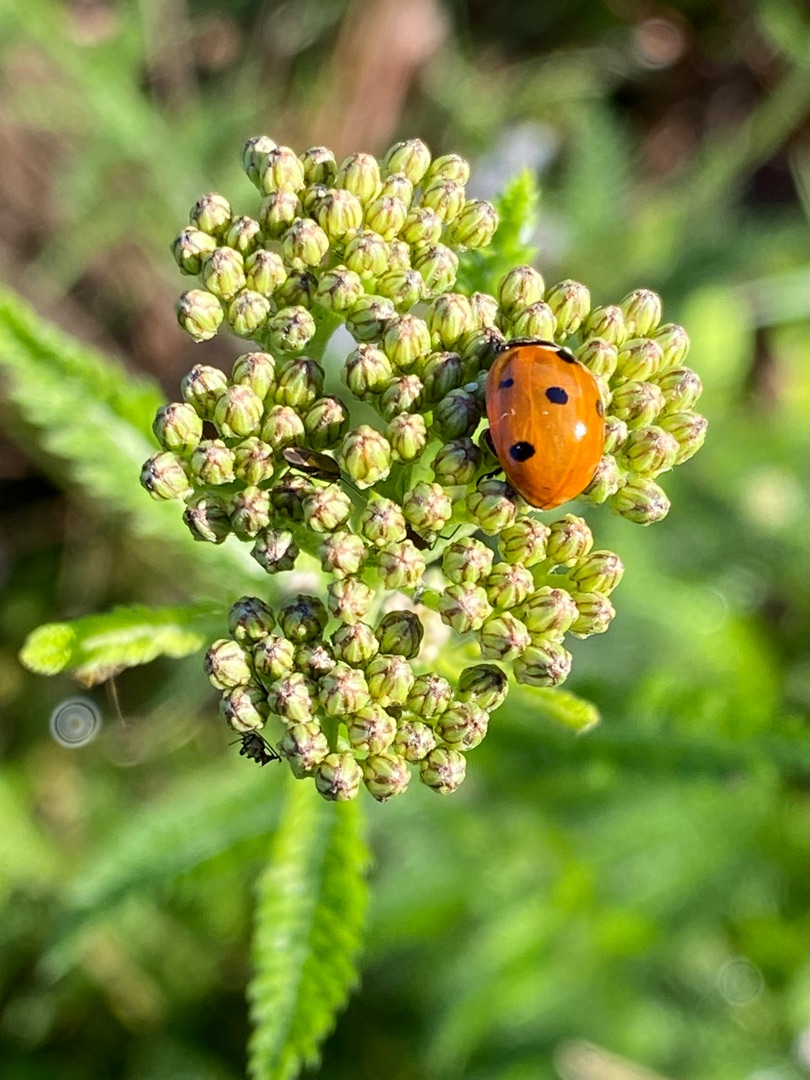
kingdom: Animalia
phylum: Arthropoda
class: Insecta
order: Coleoptera
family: Coccinellidae
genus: Coccinella
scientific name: Coccinella septempunctata
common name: Syvplettet mariehøne
